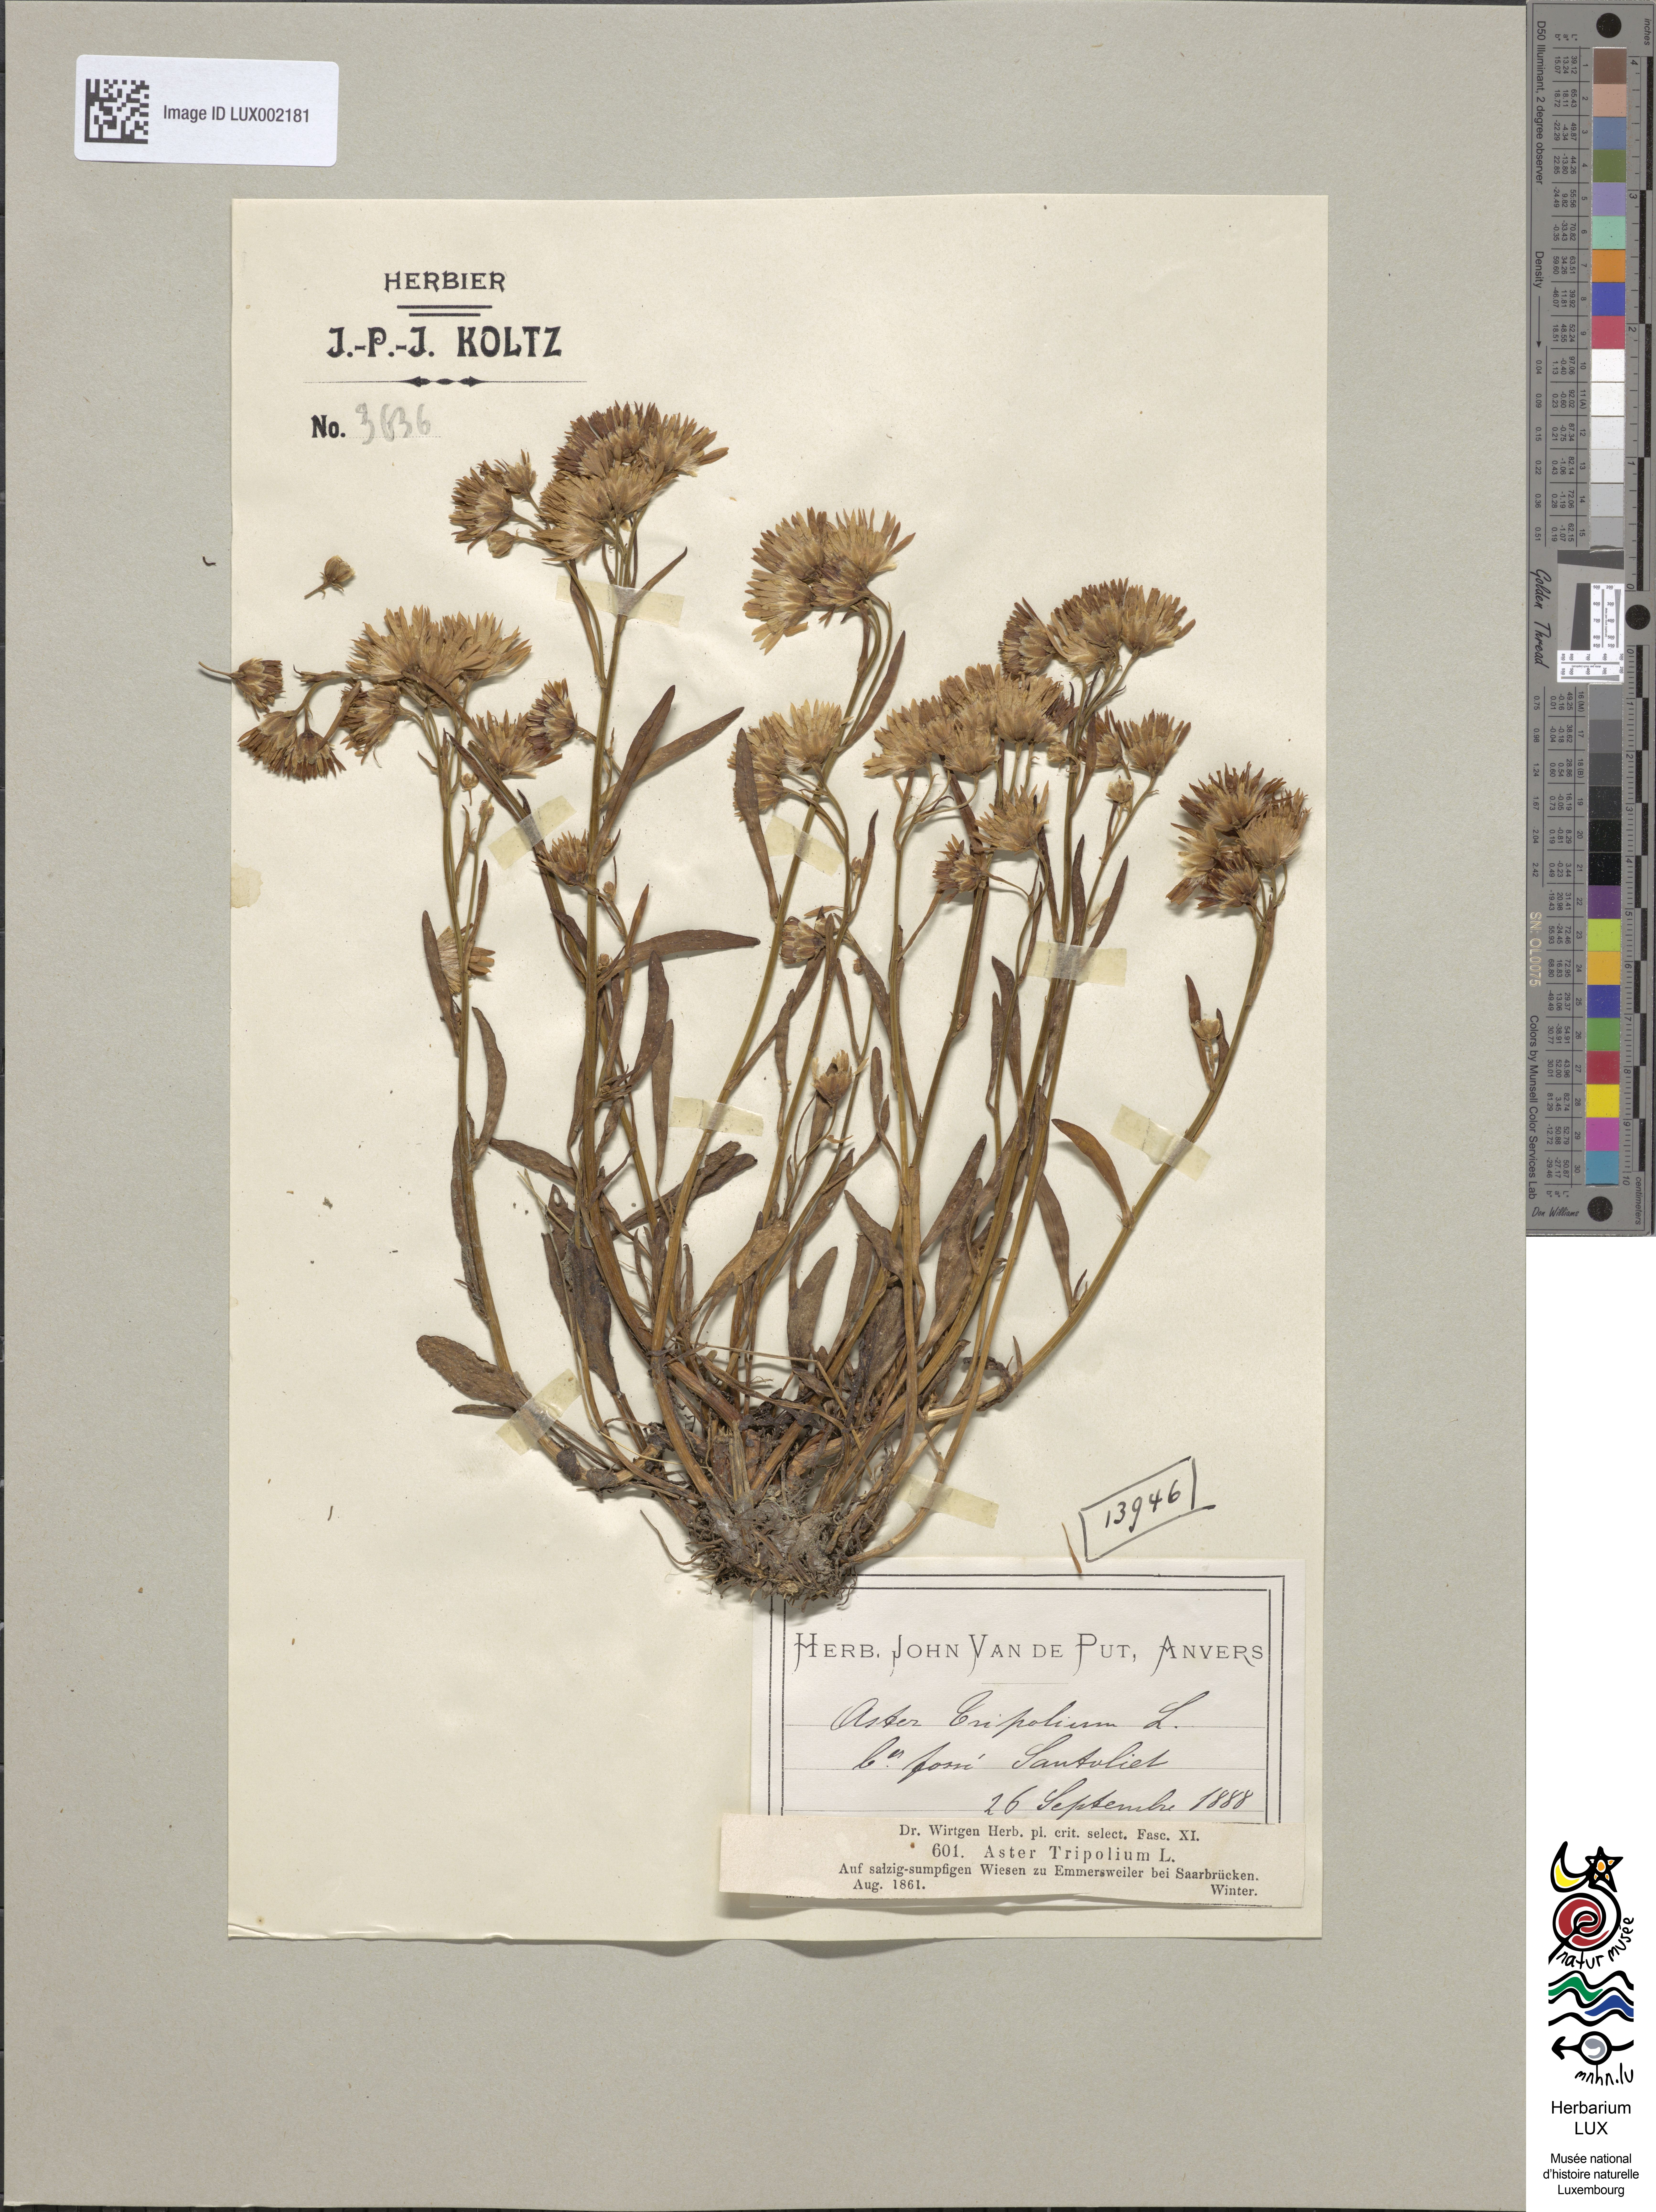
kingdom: Plantae
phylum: Tracheophyta
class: Magnoliopsida
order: Asterales
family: Asteraceae
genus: Tripolium
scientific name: Tripolium pannonicum
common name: Sea aster
